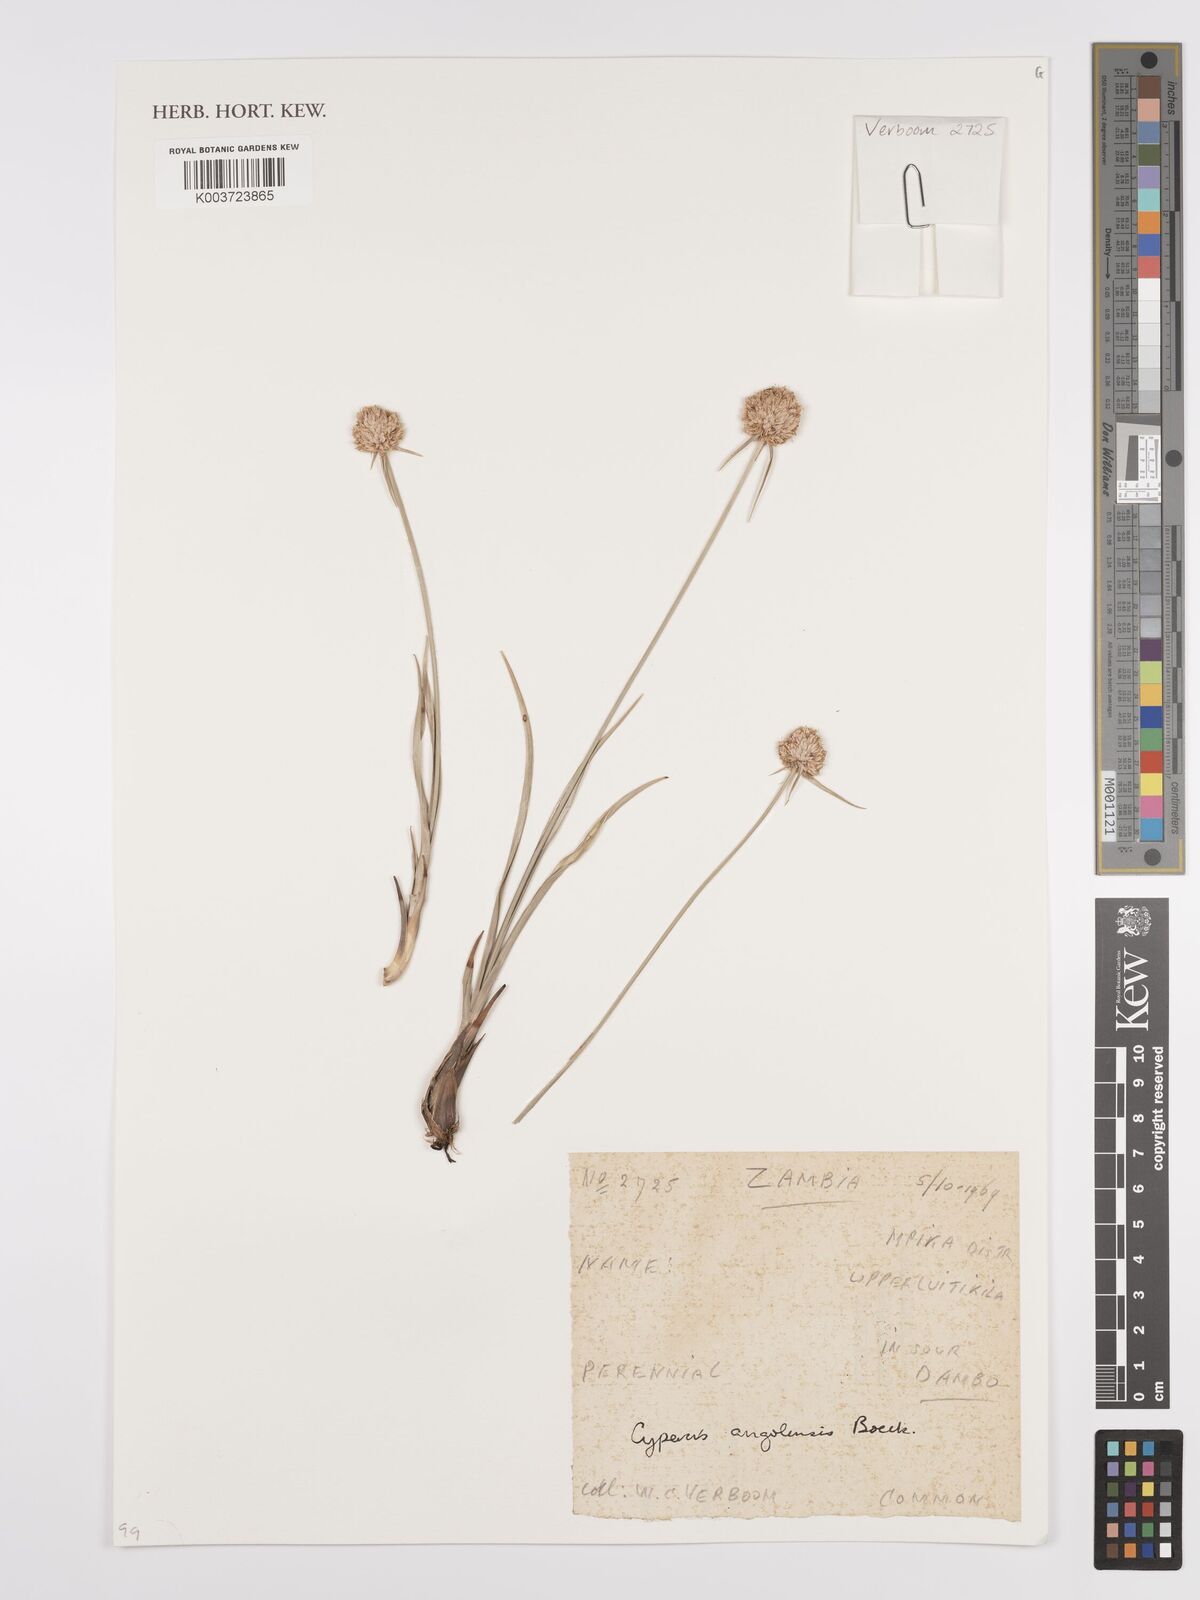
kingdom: Plantae
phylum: Tracheophyta
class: Liliopsida
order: Poales
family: Cyperaceae
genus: Cyperus
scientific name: Cyperus angolensis
